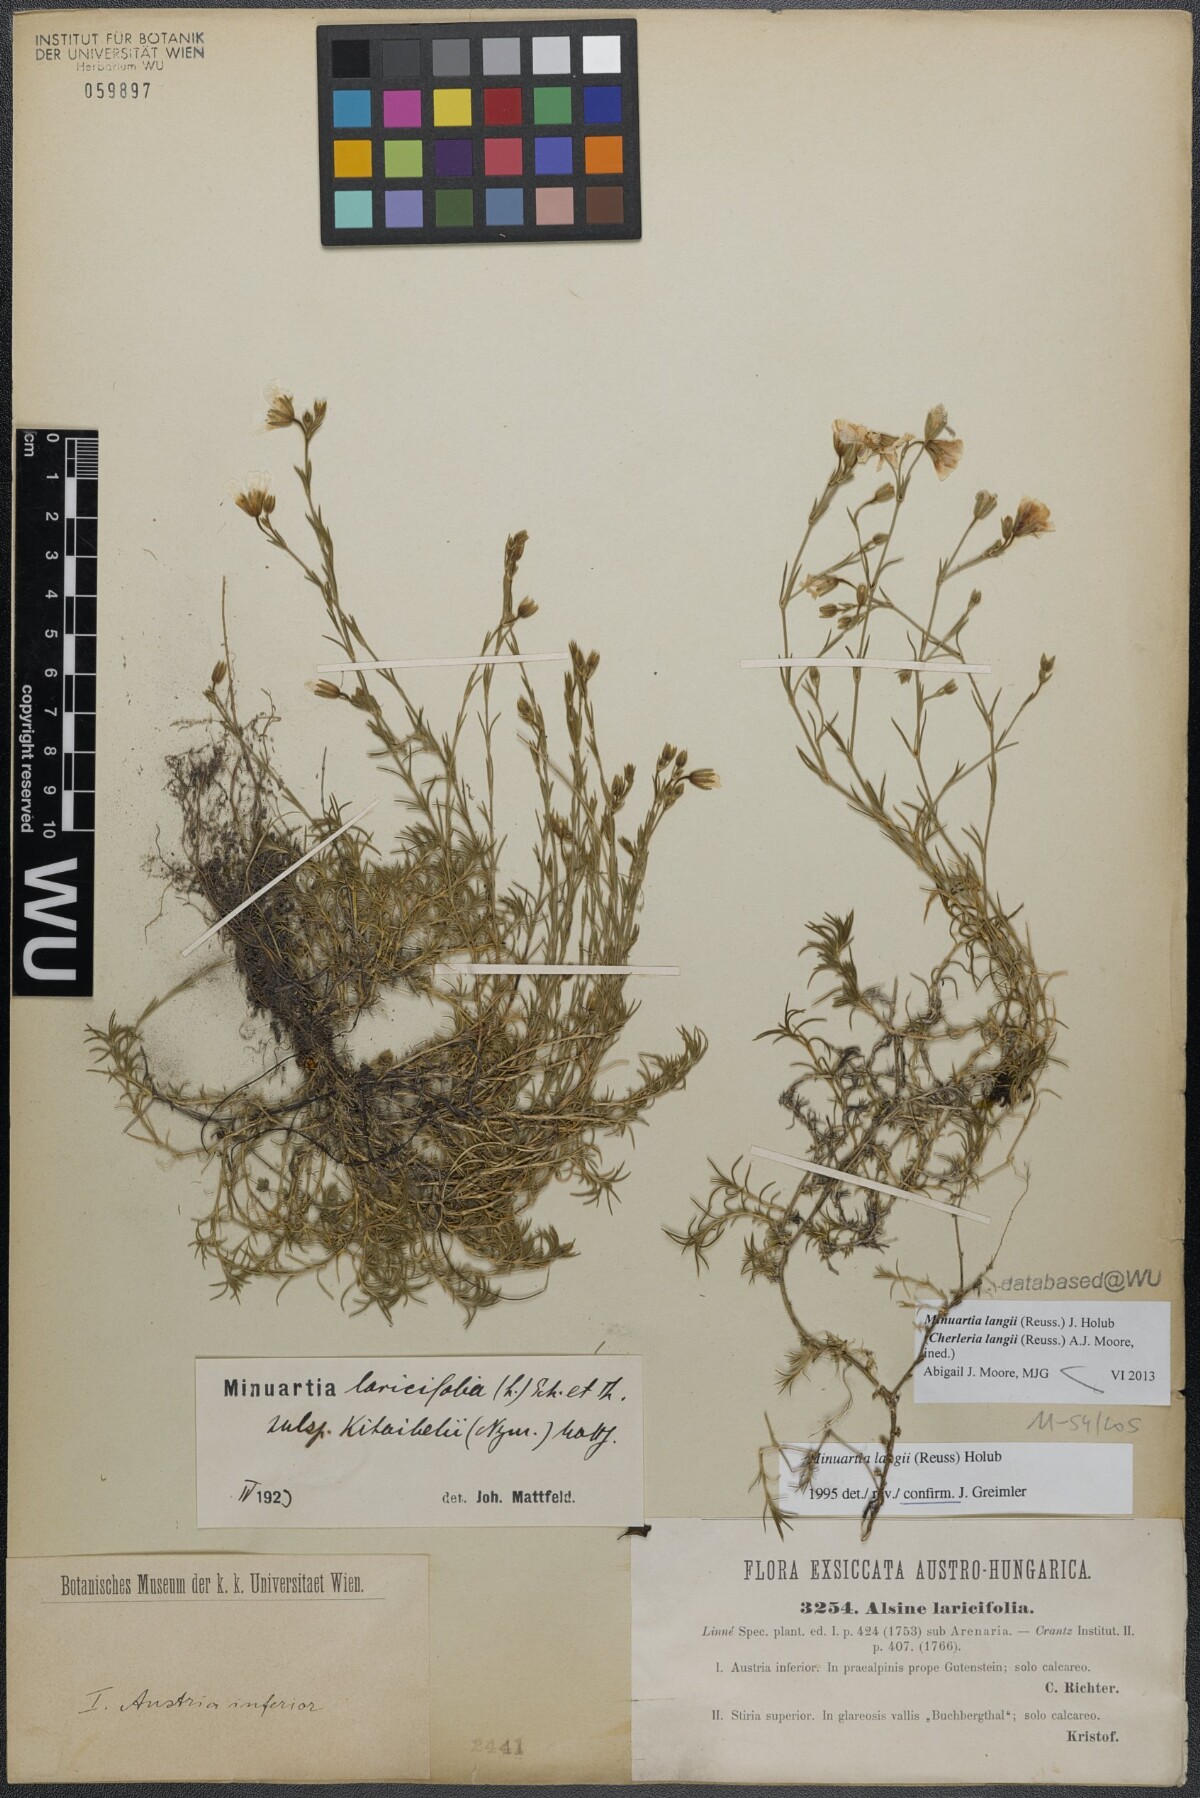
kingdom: Plantae
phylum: Tracheophyta
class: Magnoliopsida
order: Caryophyllales
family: Caryophyllaceae
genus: Cherleria
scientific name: Cherleria langii
